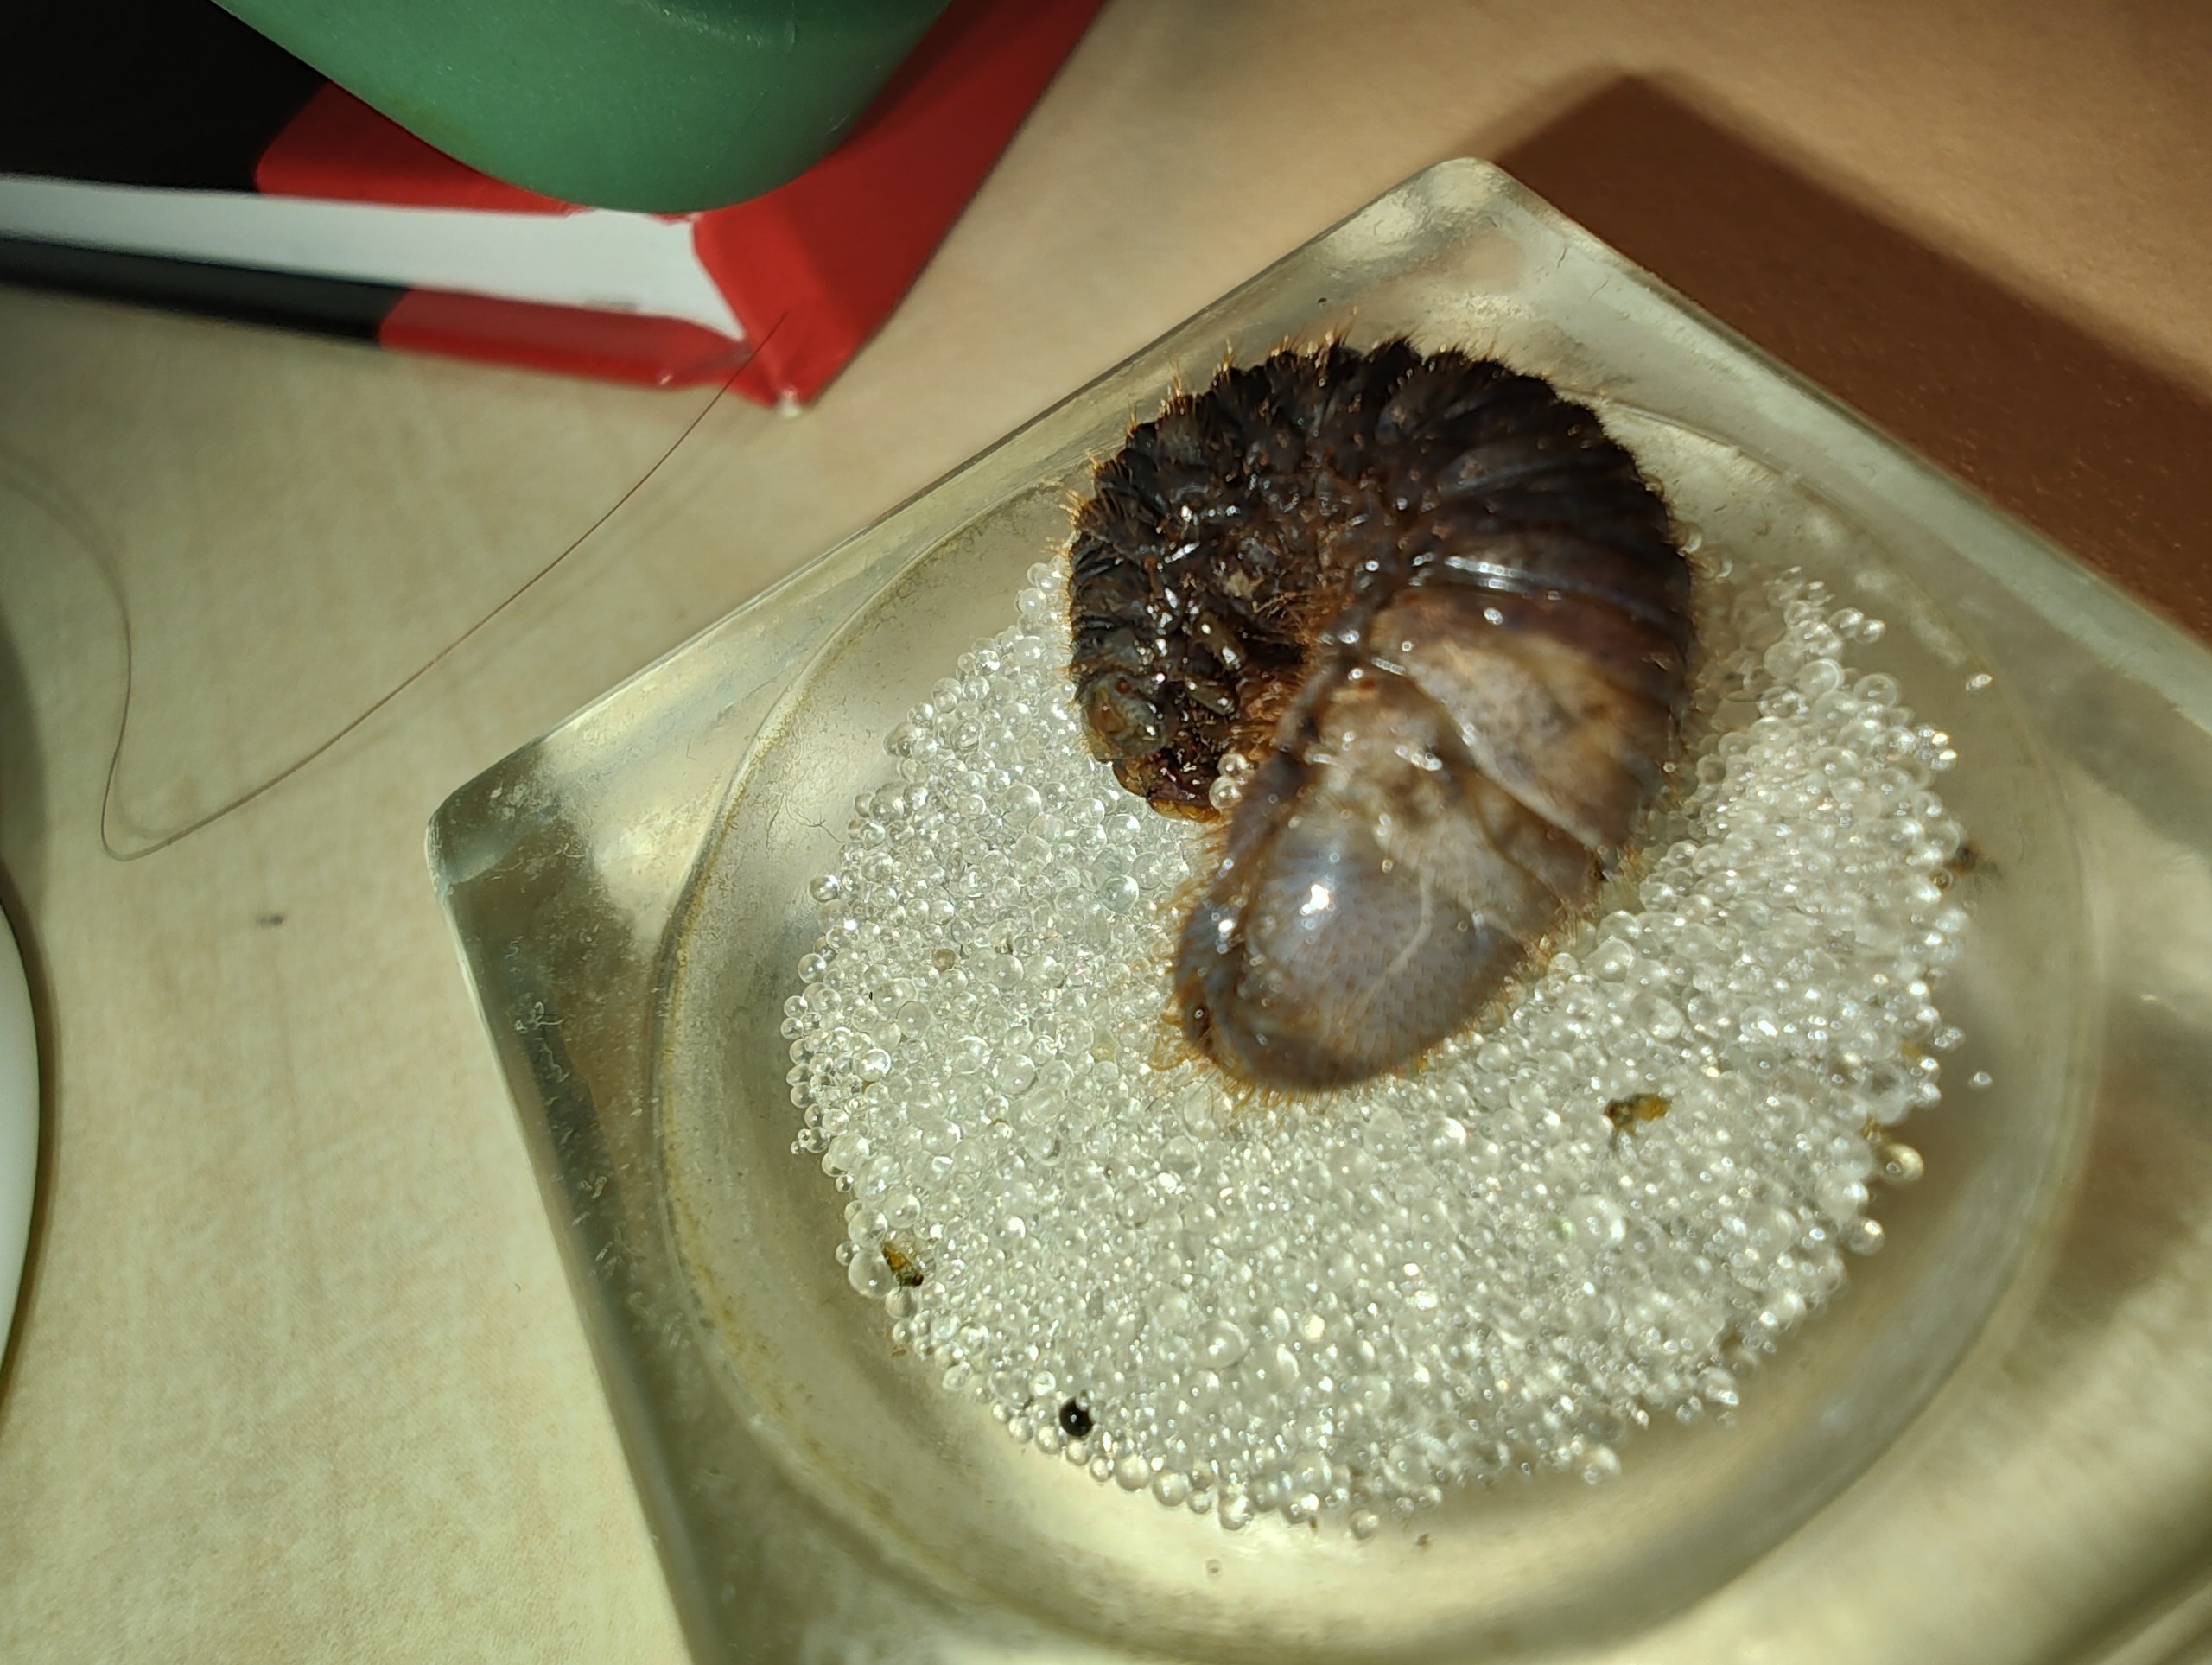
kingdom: Animalia
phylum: Arthropoda
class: Insecta
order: Coleoptera
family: Scarabaeidae
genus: Protaetia
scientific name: Protaetia cuprea
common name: Kobberguldbasse
